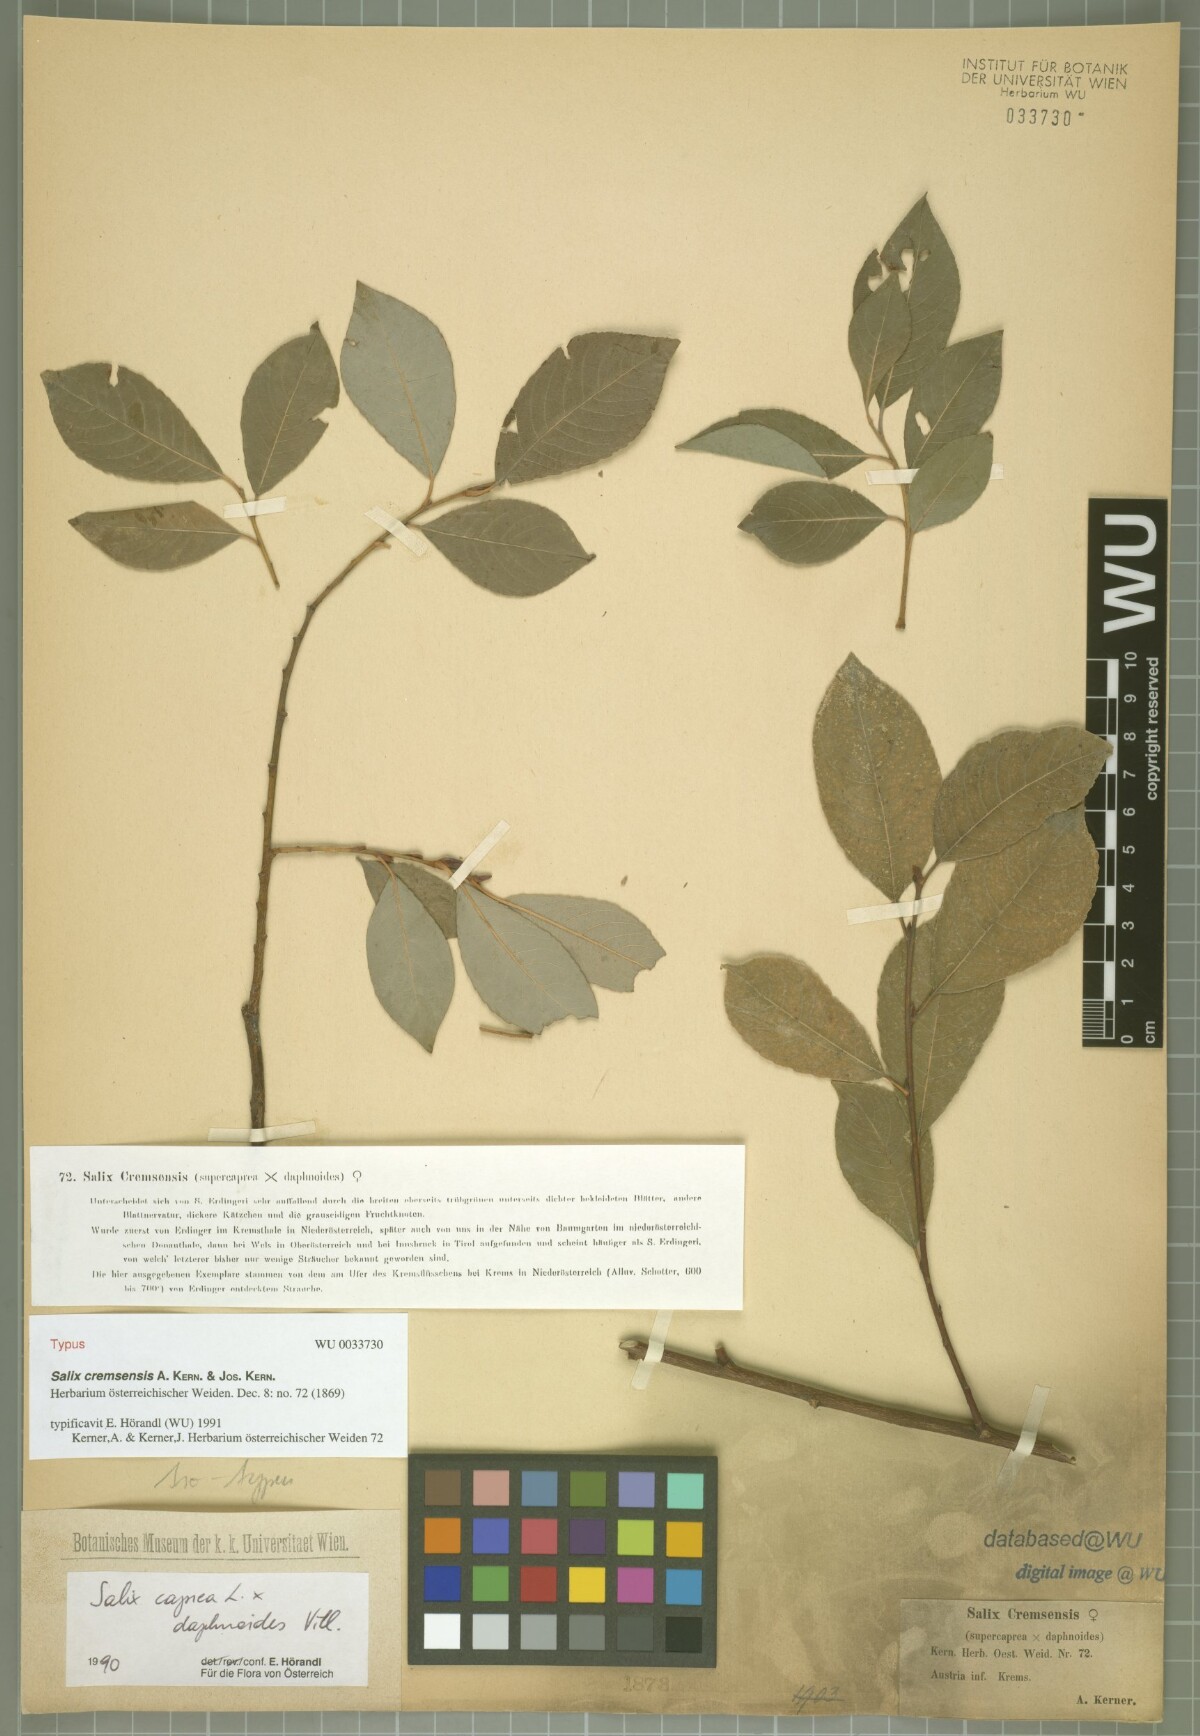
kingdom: Plantae
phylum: Tracheophyta
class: Magnoliopsida
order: Malpighiales
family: Salicaceae
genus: Salix
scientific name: Salix erdingeri
